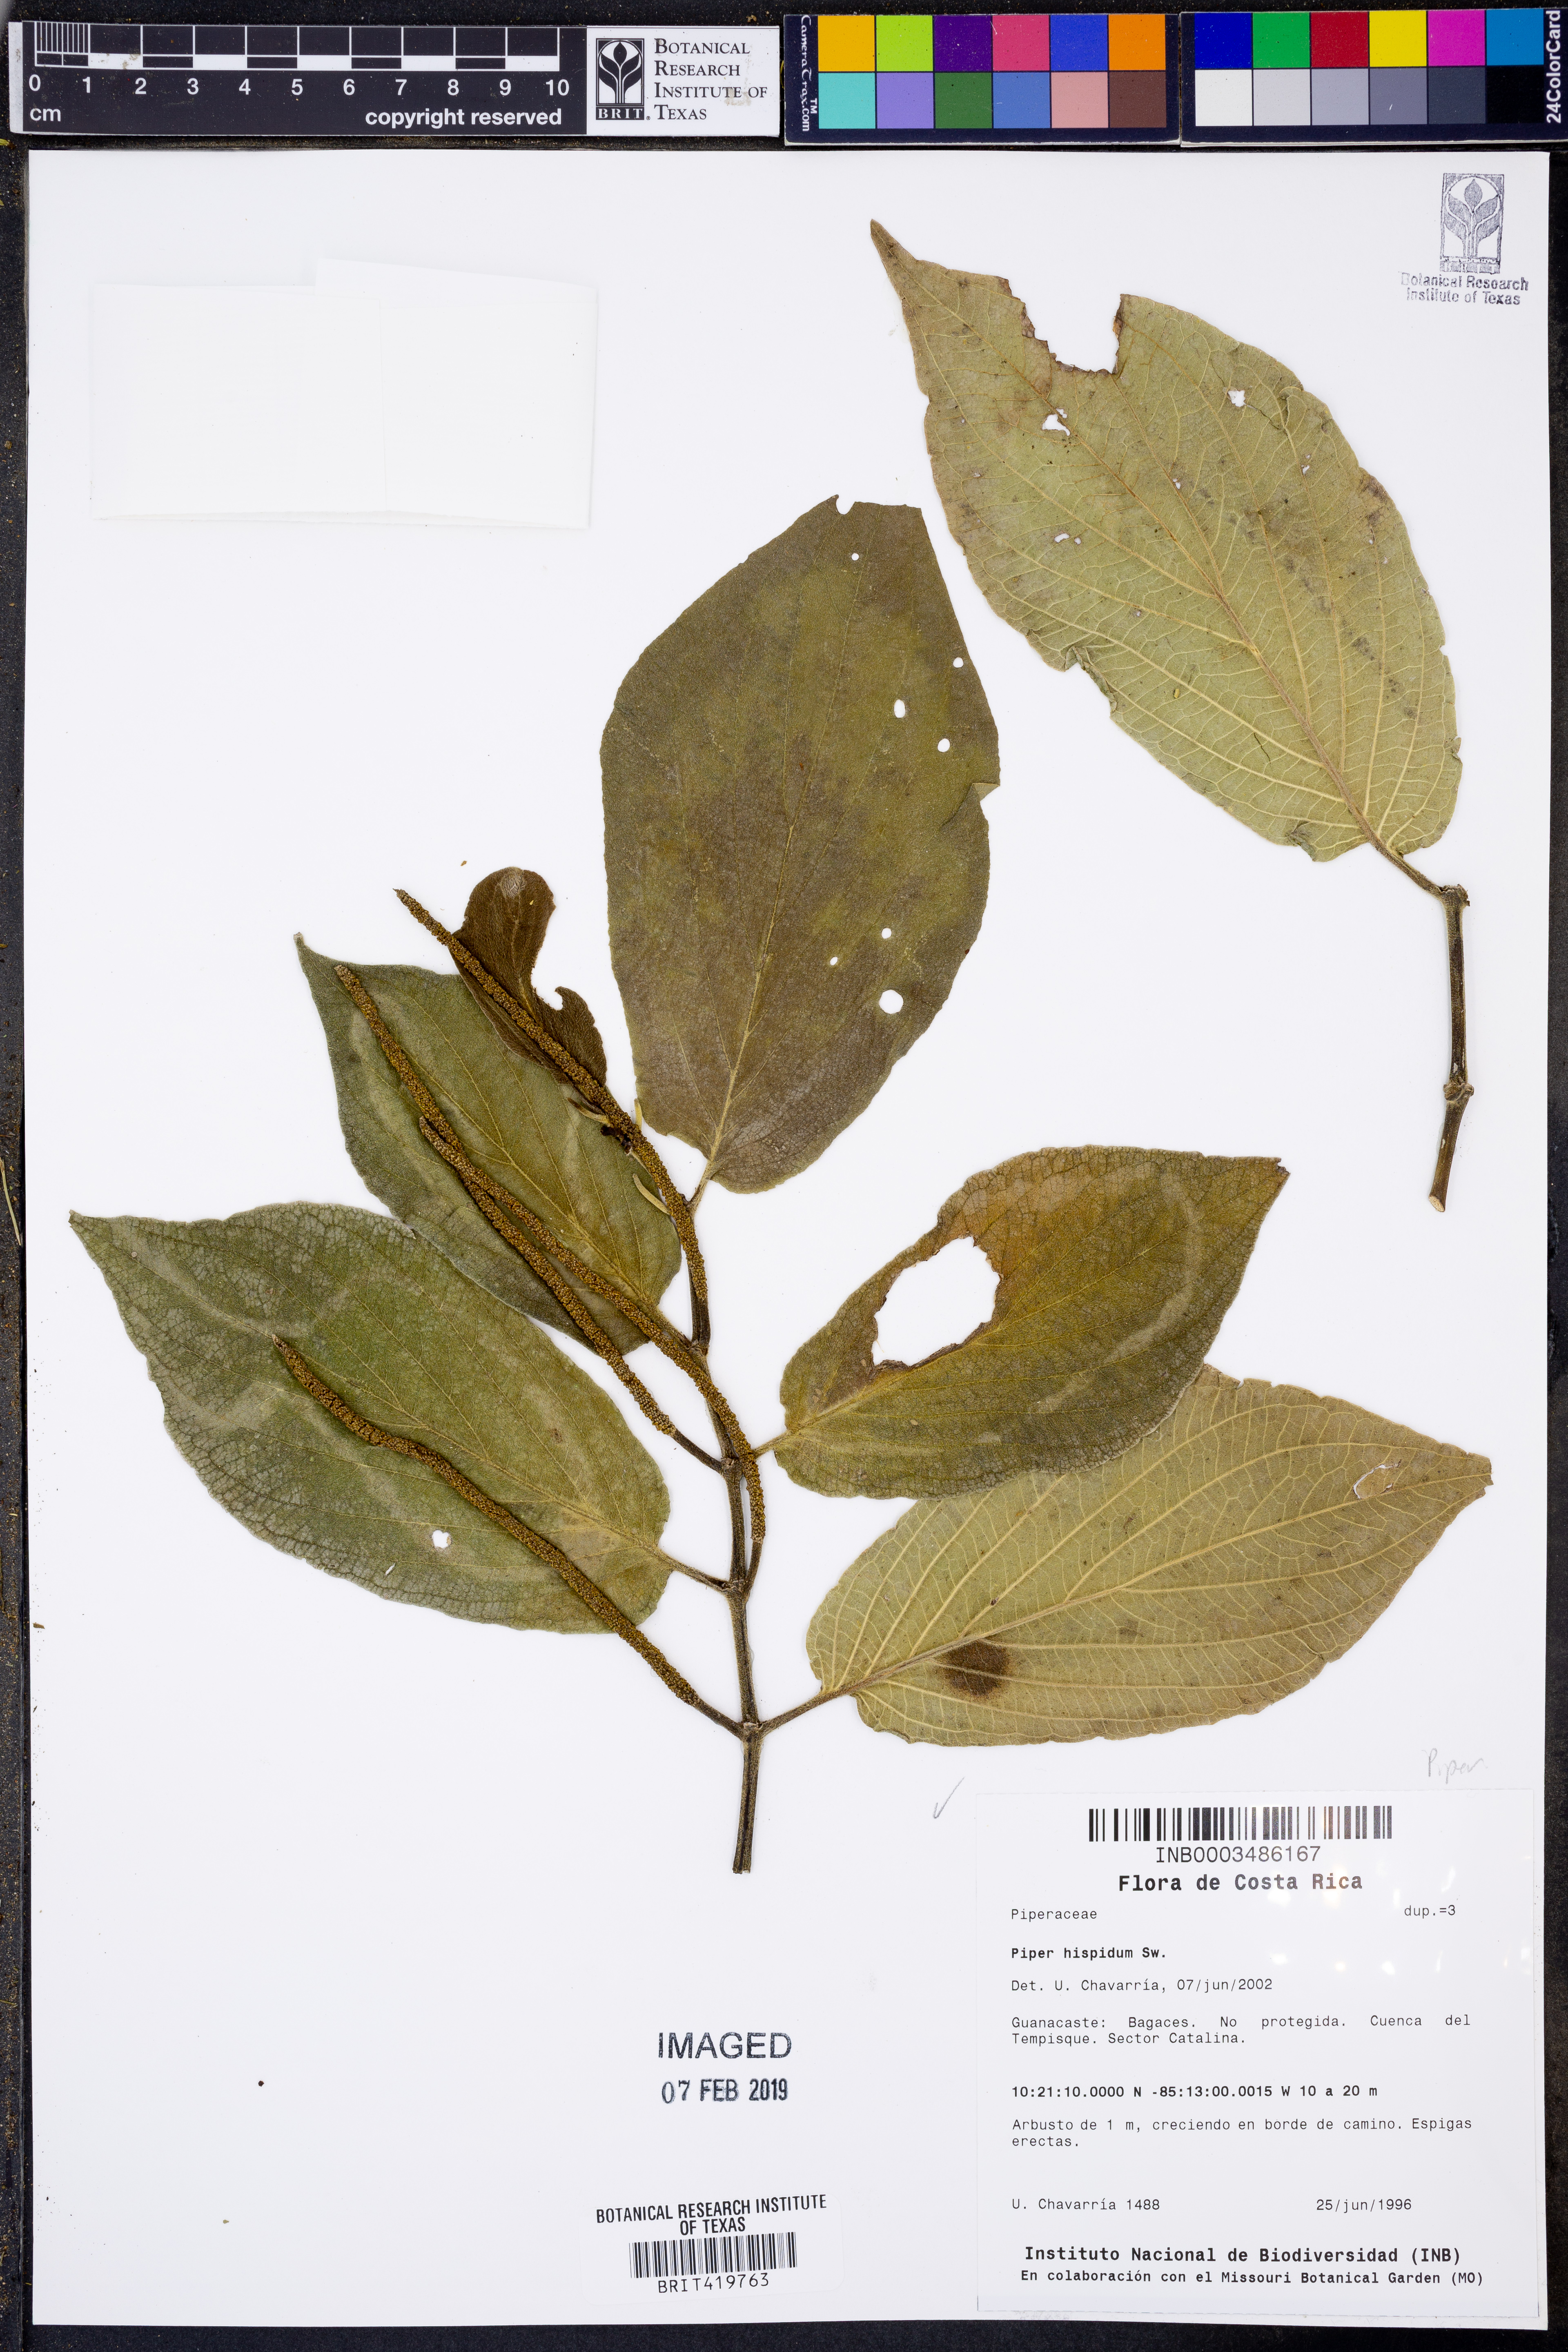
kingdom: Plantae
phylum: Tracheophyta
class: Magnoliopsida
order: Piperales
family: Piperaceae
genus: Piper
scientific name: Piper hispidum
